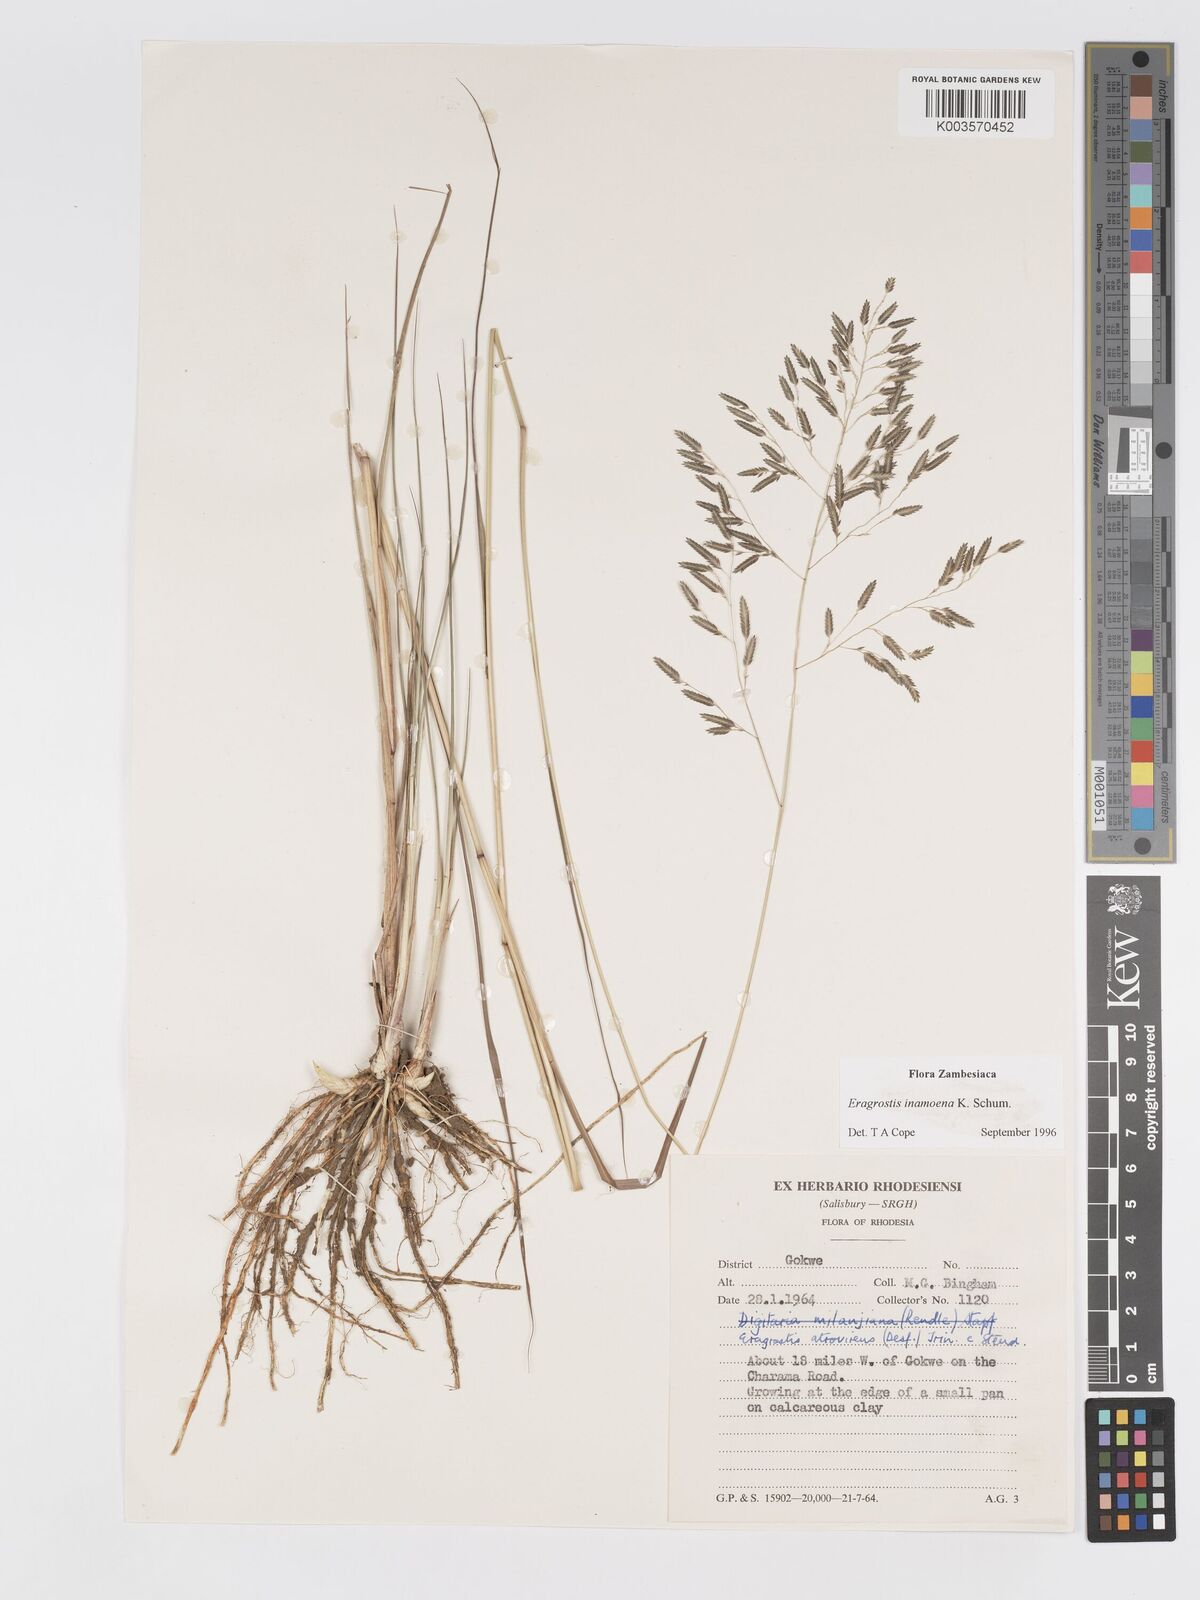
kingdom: Plantae
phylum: Tracheophyta
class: Liliopsida
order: Poales
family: Poaceae
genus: Eragrostis
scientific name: Eragrostis inamoena
